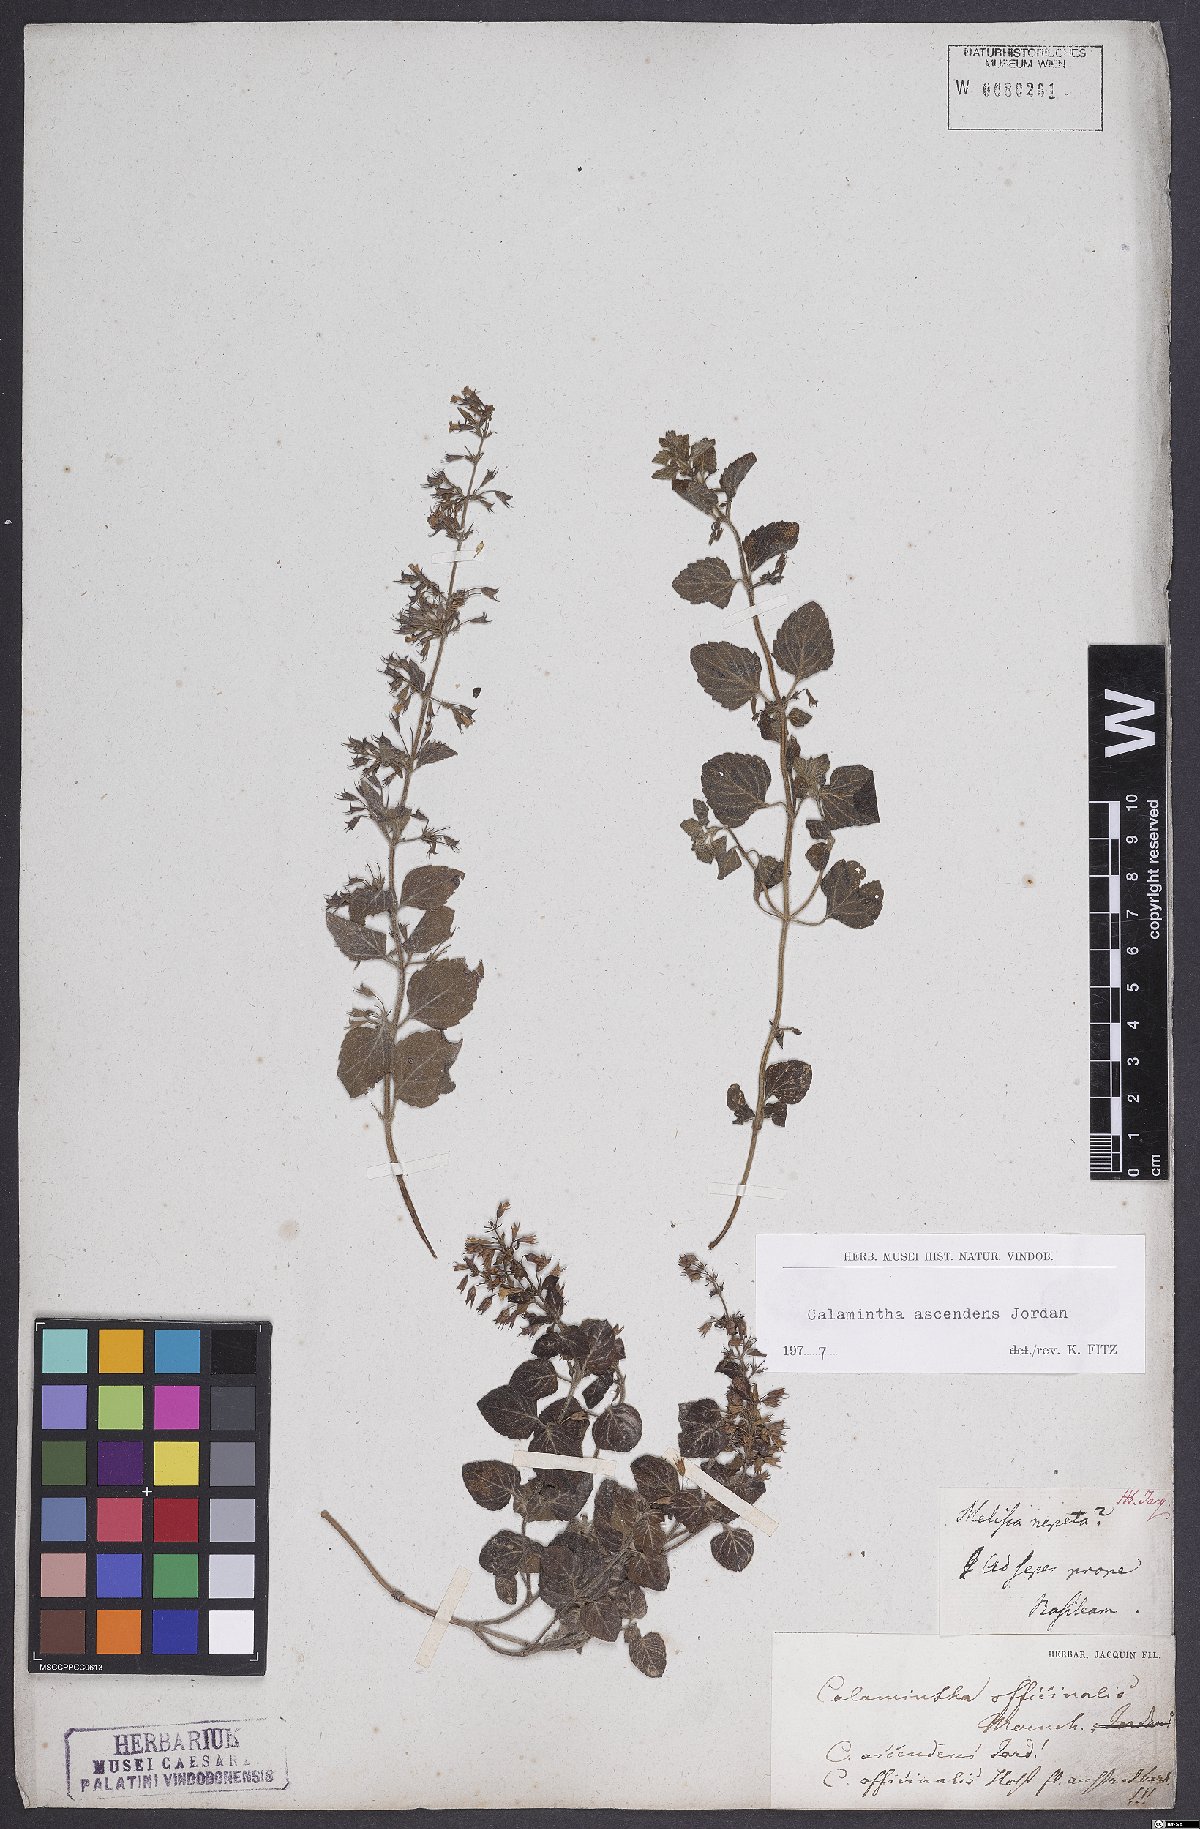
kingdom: Plantae
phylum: Tracheophyta
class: Magnoliopsida
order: Lamiales
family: Lamiaceae
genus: Clinopodium
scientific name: Clinopodium menthifolium
